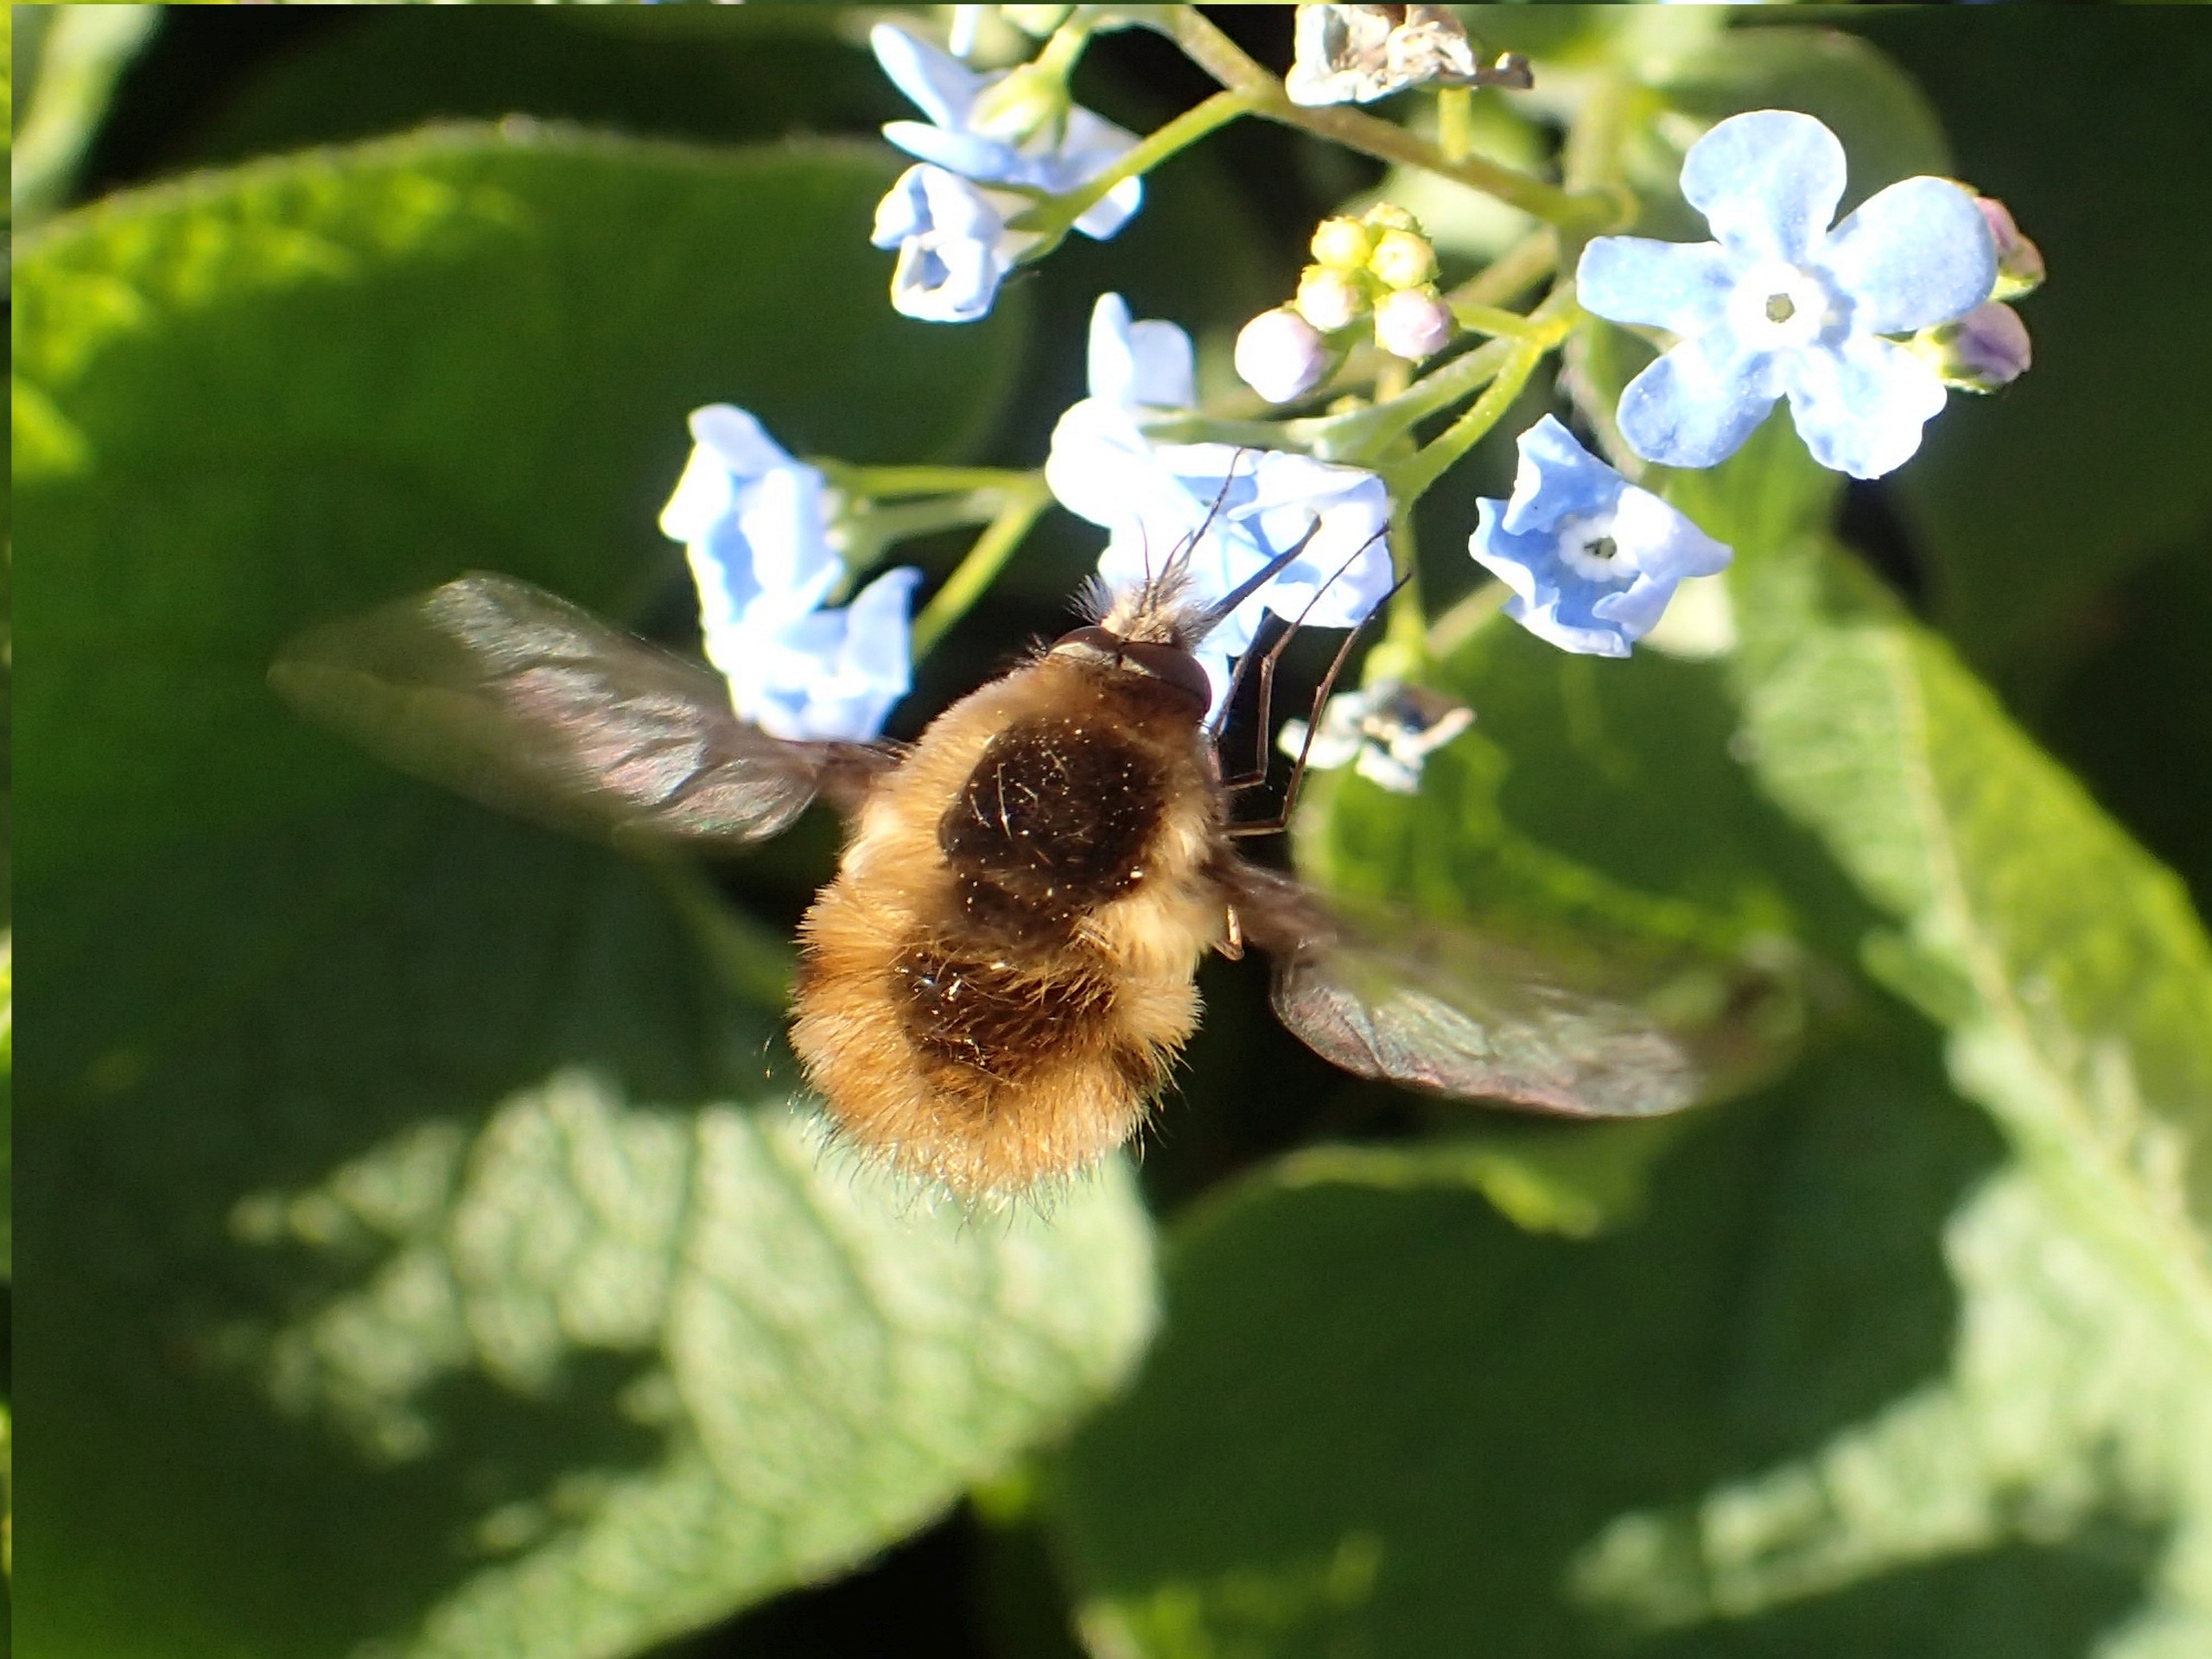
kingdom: Animalia
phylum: Arthropoda
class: Insecta
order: Diptera
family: Bombyliidae
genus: Bombylius
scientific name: Bombylius major
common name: Stor humleflue
